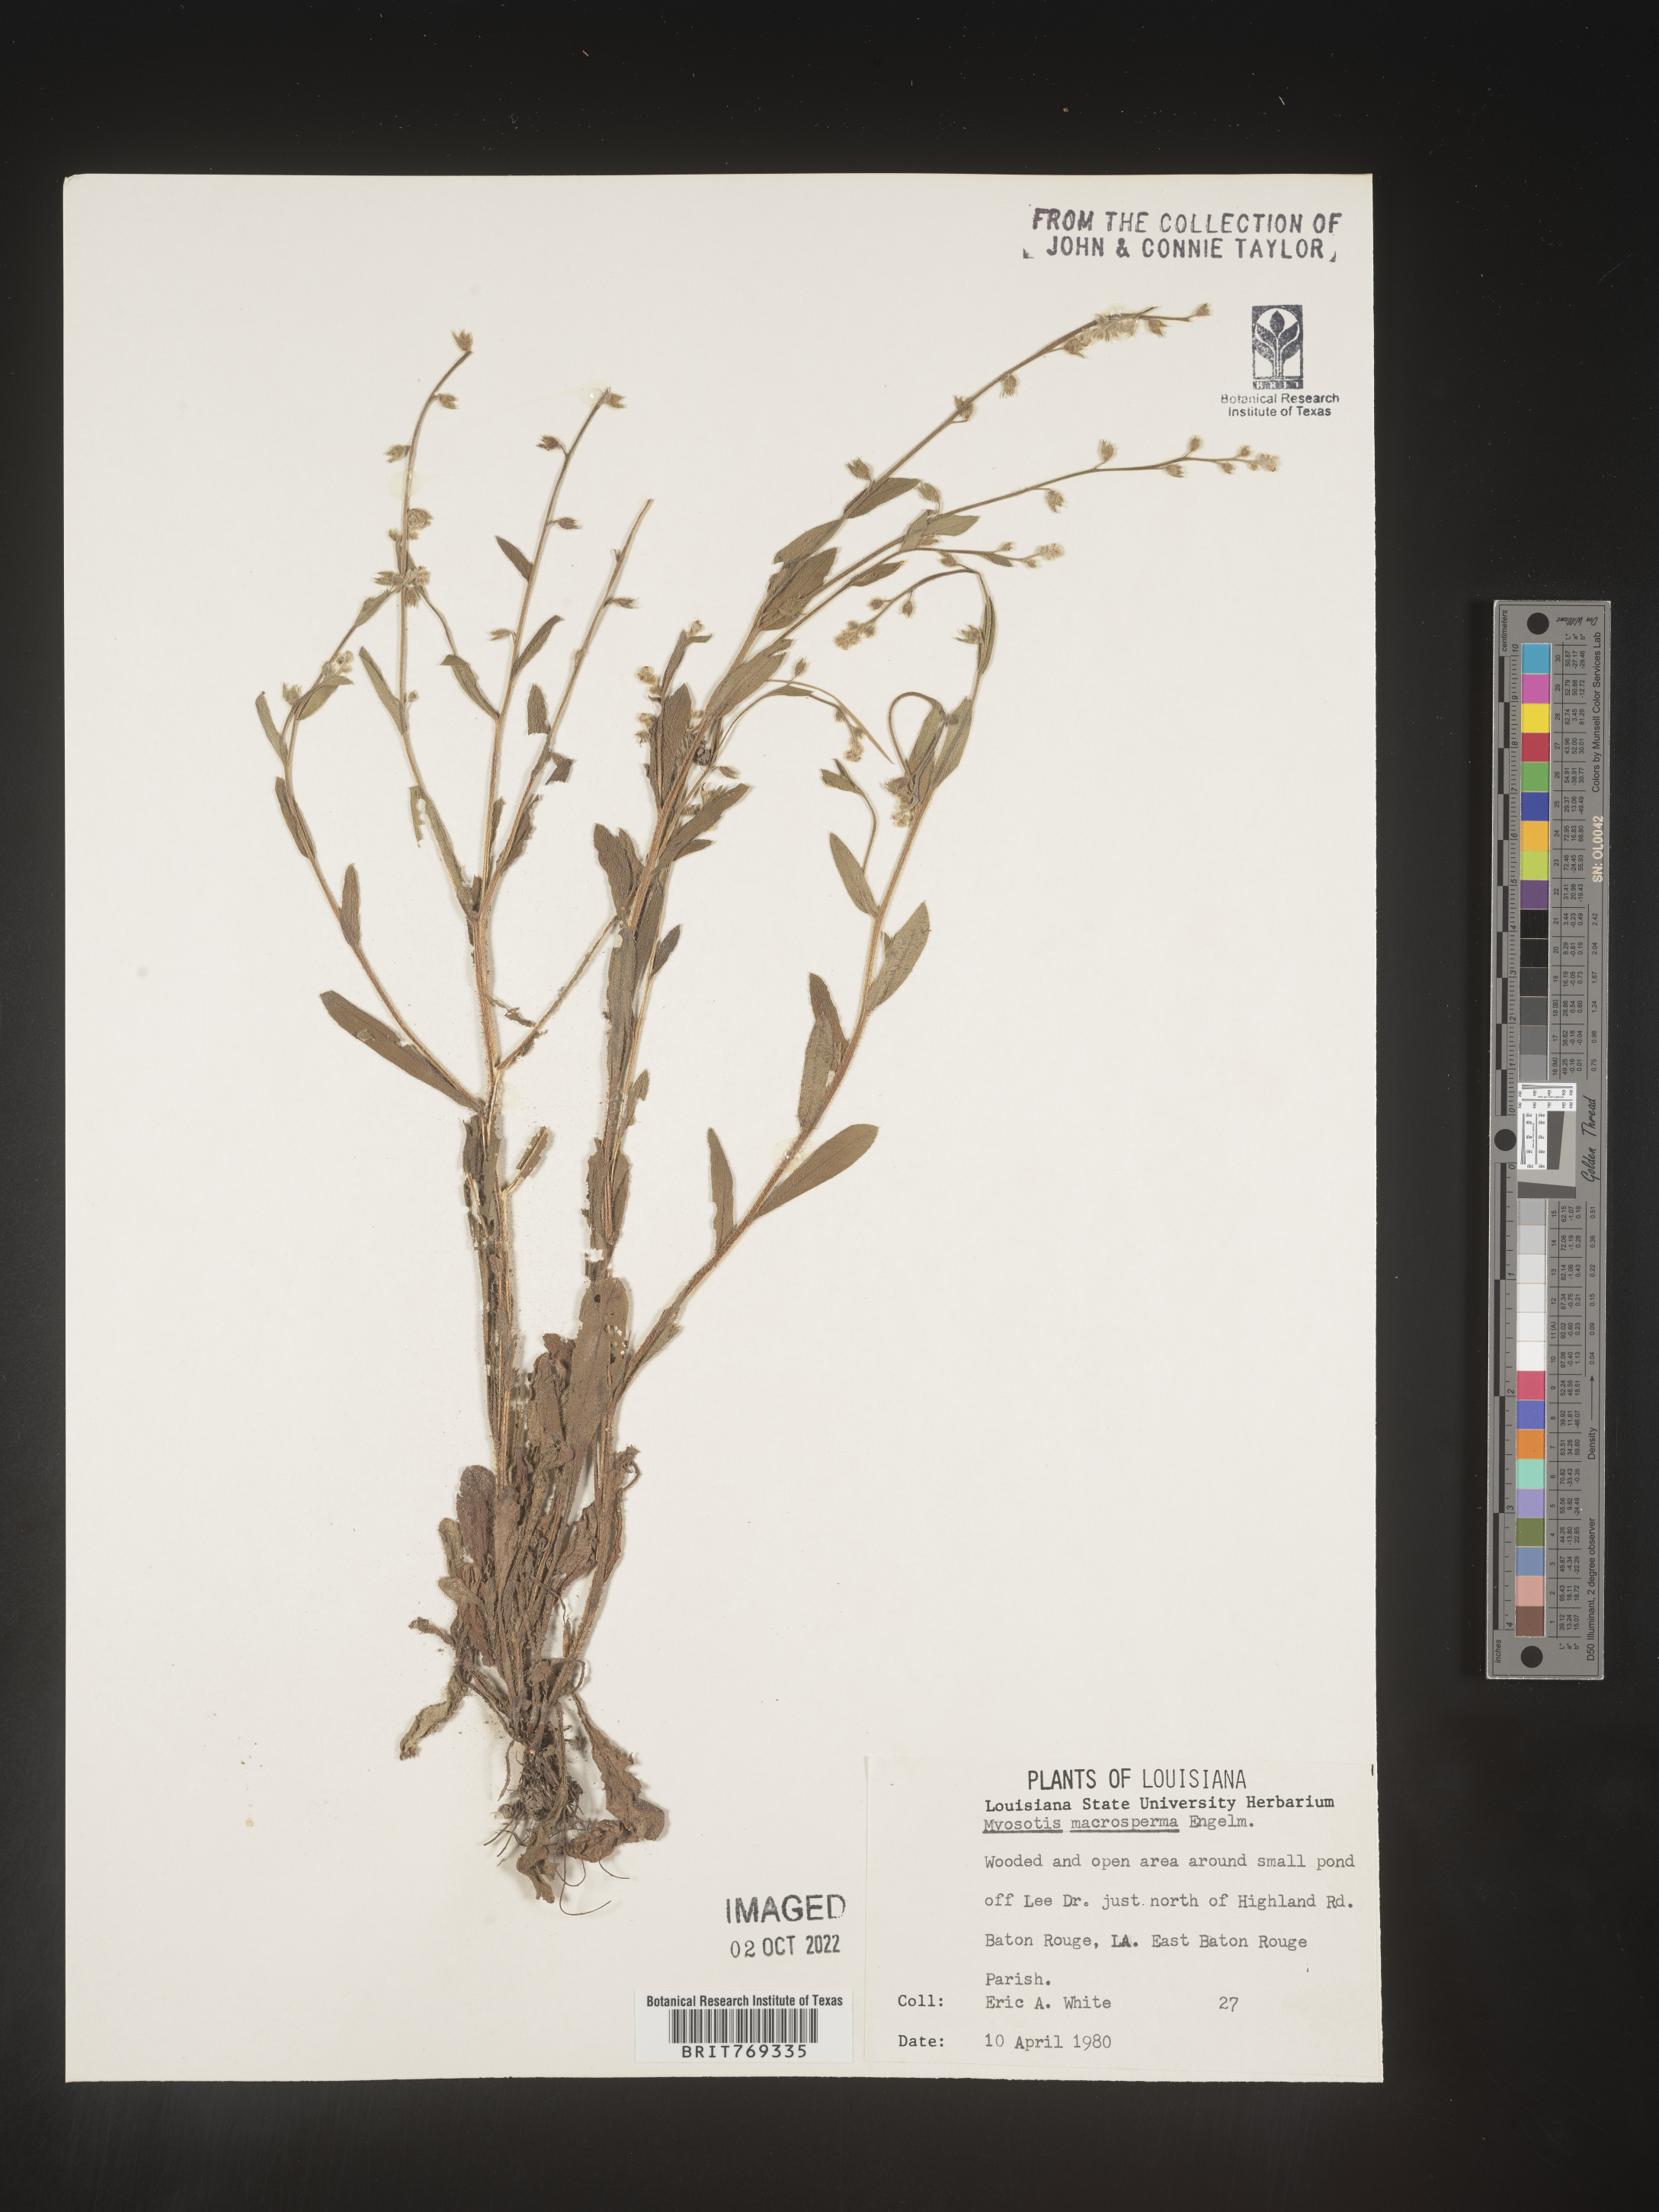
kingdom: Plantae
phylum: Tracheophyta
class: Magnoliopsida
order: Boraginales
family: Boraginaceae
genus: Myosotis
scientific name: Myosotis macrosperma
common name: Large-seed forget-me-not
